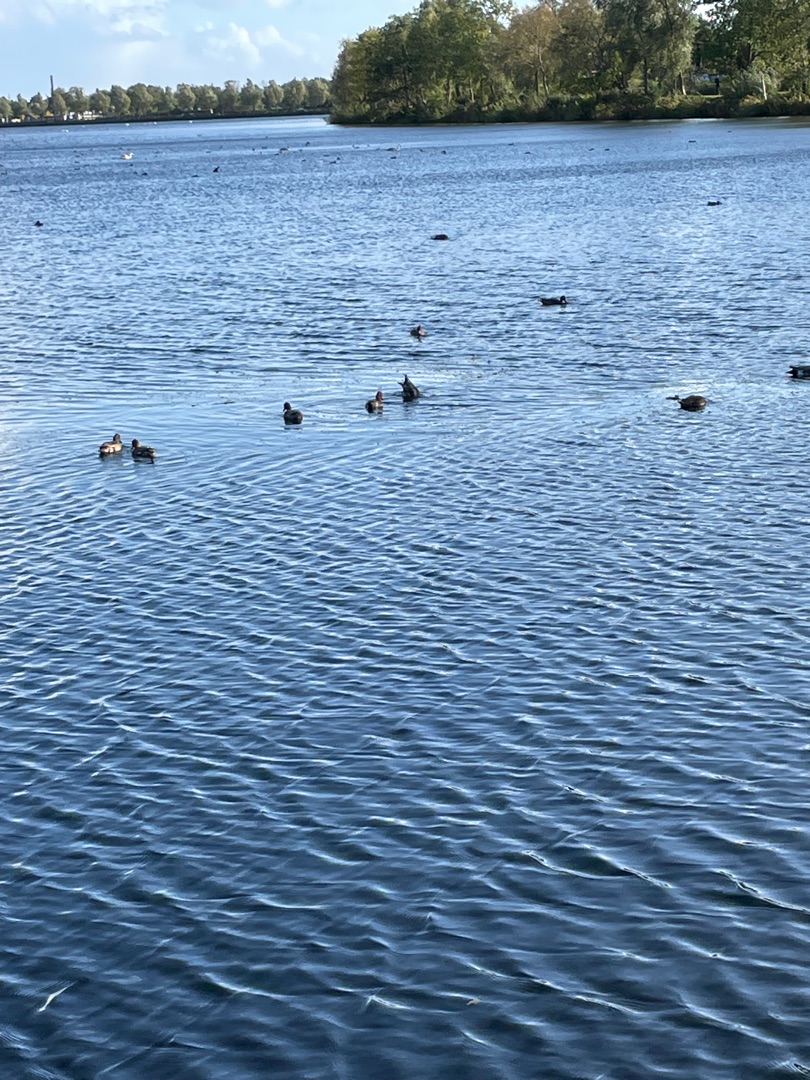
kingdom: Animalia
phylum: Chordata
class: Aves
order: Anseriformes
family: Anatidae
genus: Mareca
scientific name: Mareca penelope
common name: Pibeand
